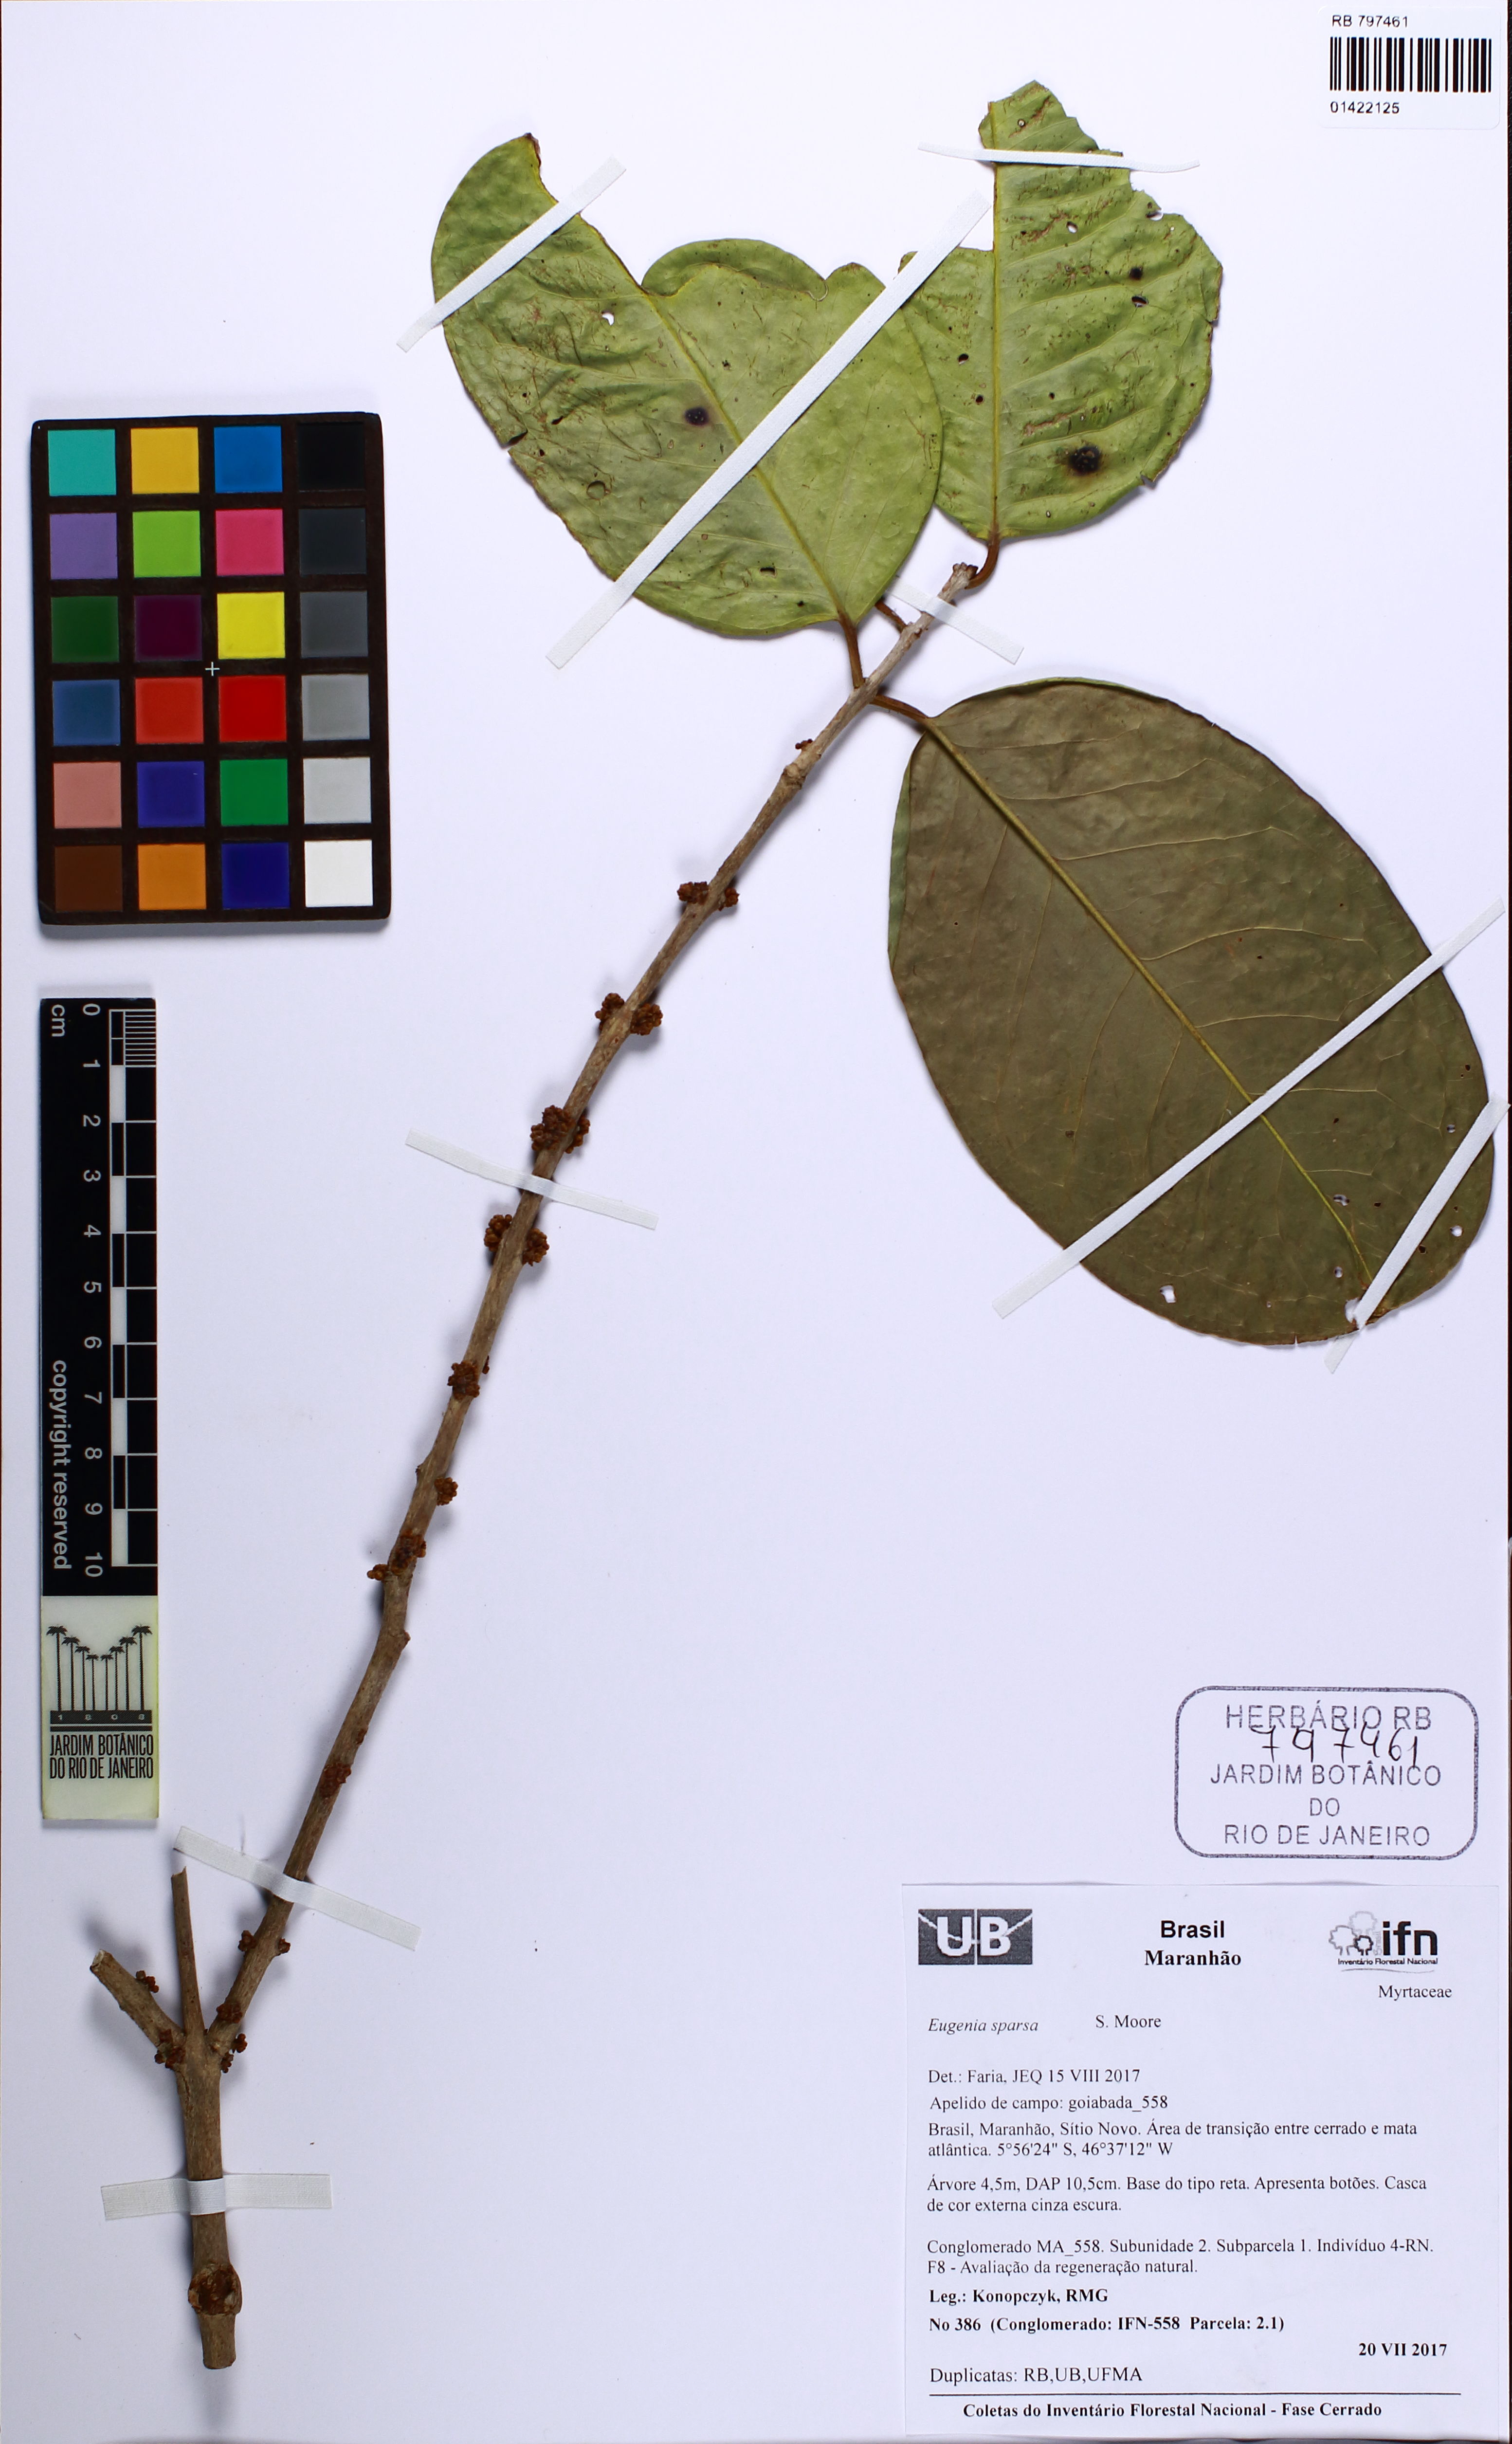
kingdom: Plantae
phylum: Tracheophyta
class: Magnoliopsida
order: Myrtales
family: Myrtaceae
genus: Eugenia
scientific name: Eugenia sparsa
